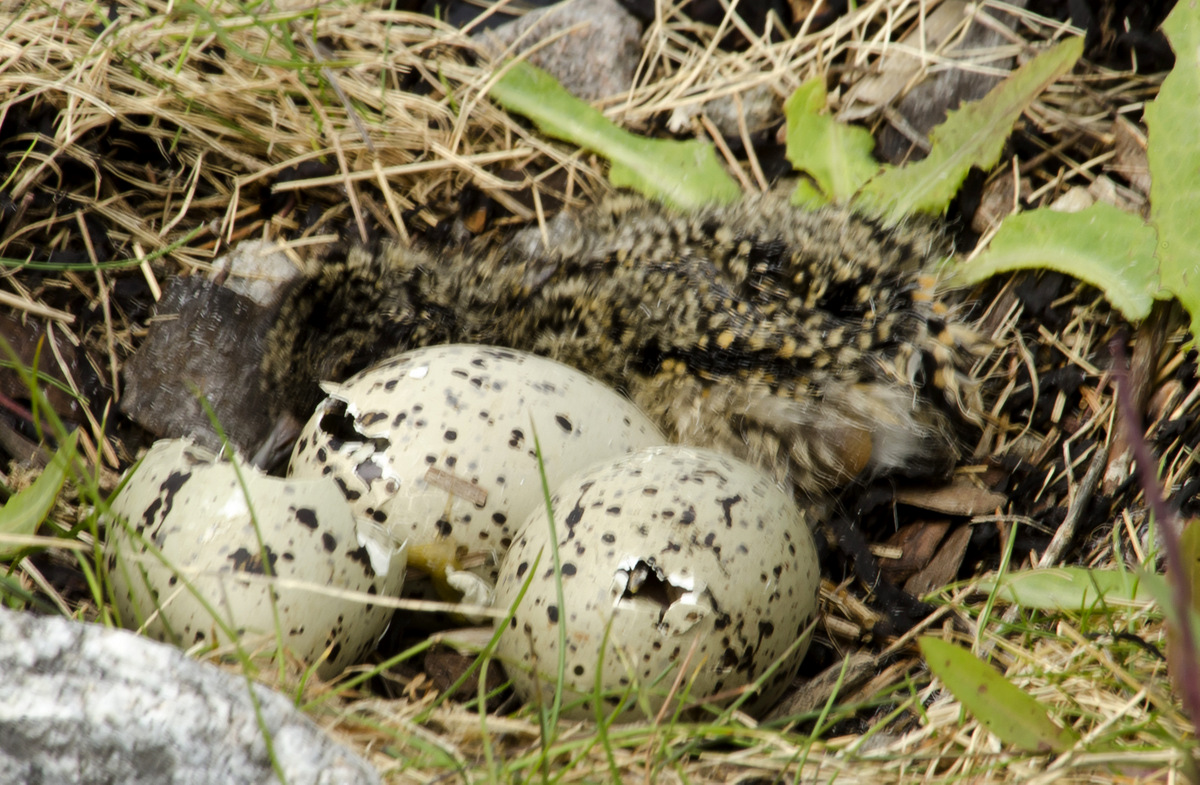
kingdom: Animalia
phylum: Chordata
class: Aves
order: Charadriiformes
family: Haematopodidae
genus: Haematopus
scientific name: Haematopus ostralegus
